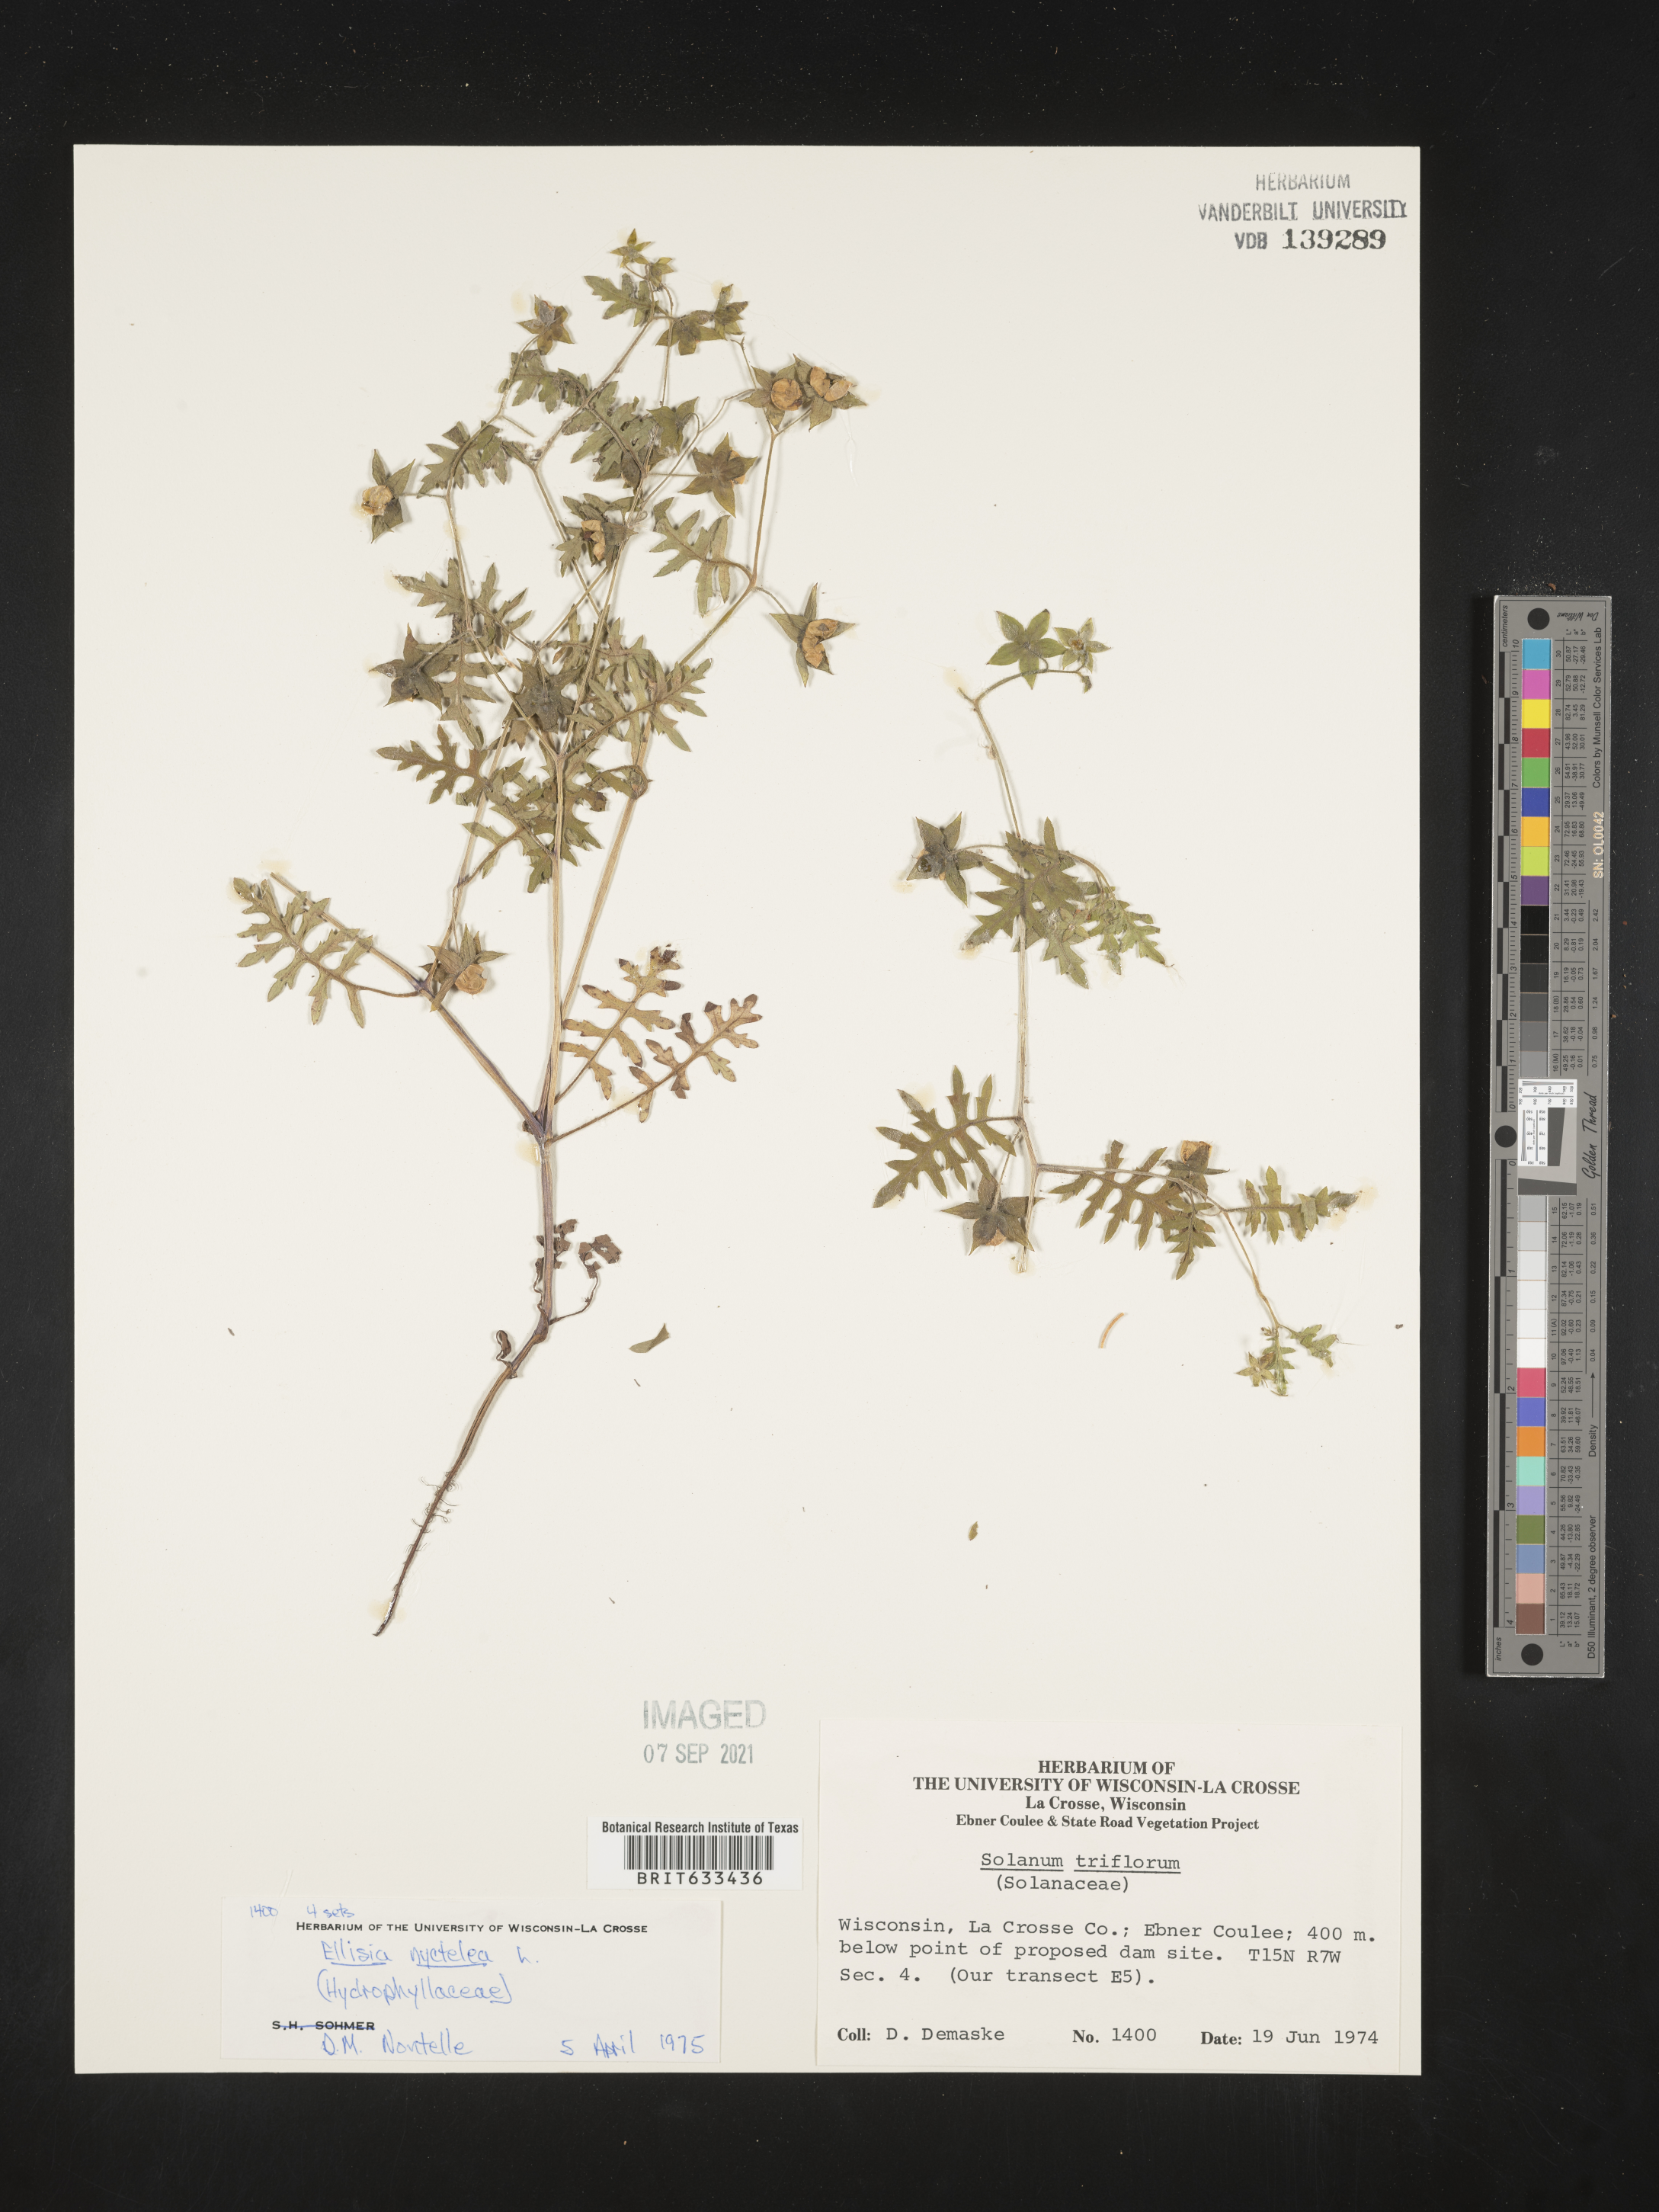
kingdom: Plantae
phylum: Tracheophyta
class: Magnoliopsida
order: Boraginales
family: Hydrophyllaceae
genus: Ellisia
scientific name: Ellisia nyctelea
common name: Aunt lucy
